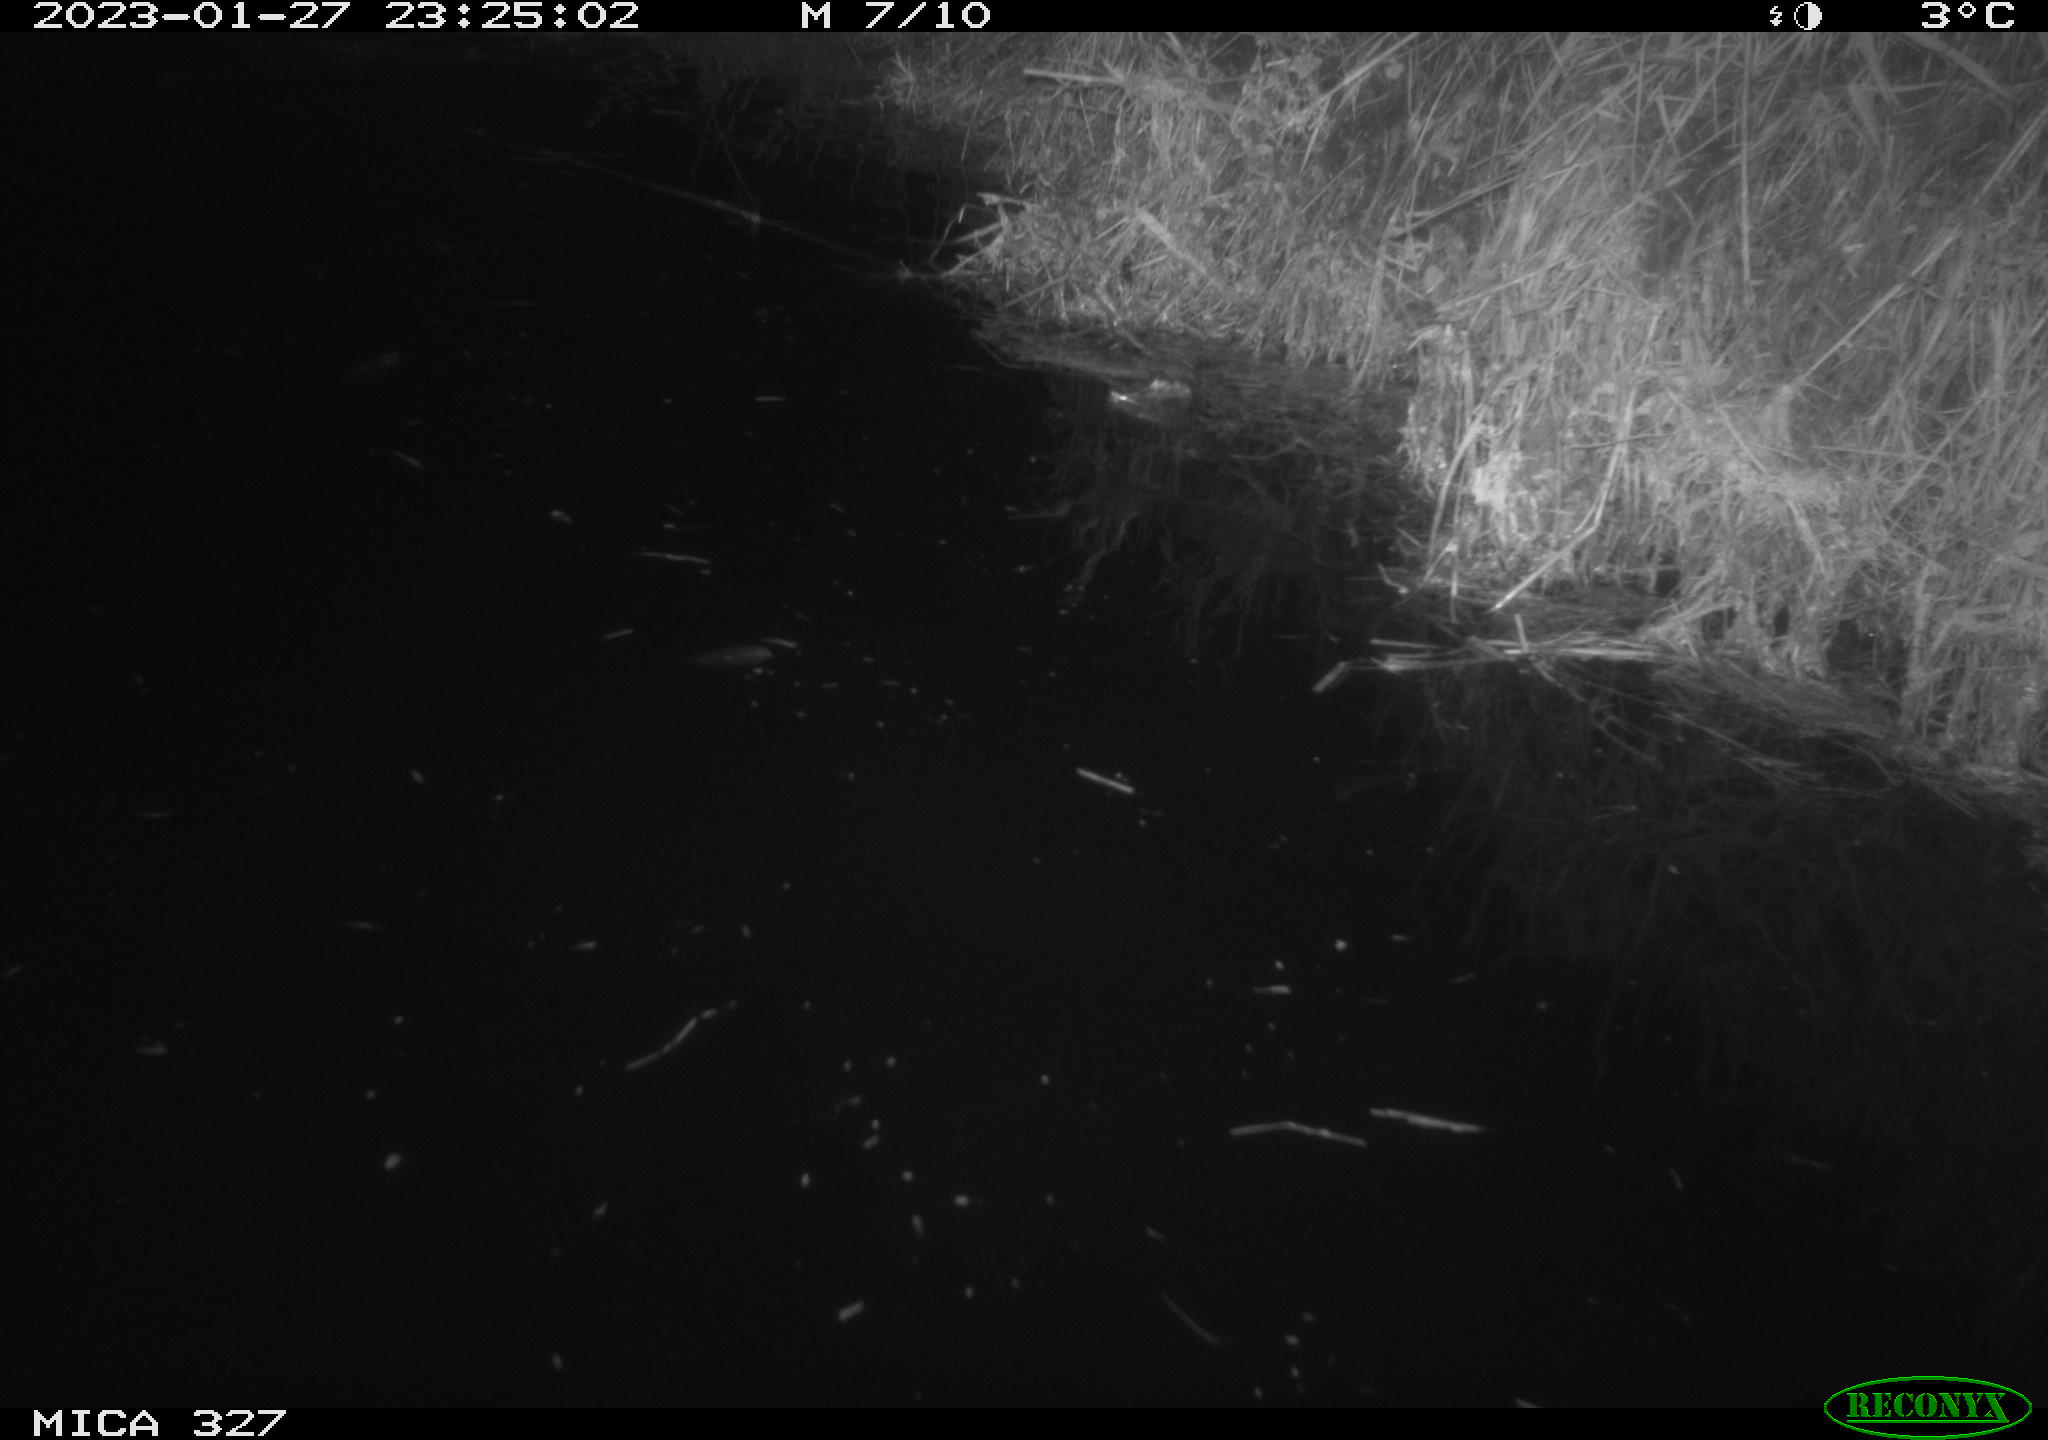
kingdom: Animalia
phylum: Chordata
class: Mammalia
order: Rodentia
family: Cricetidae
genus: Ondatra
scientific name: Ondatra zibethicus
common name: Muskrat
